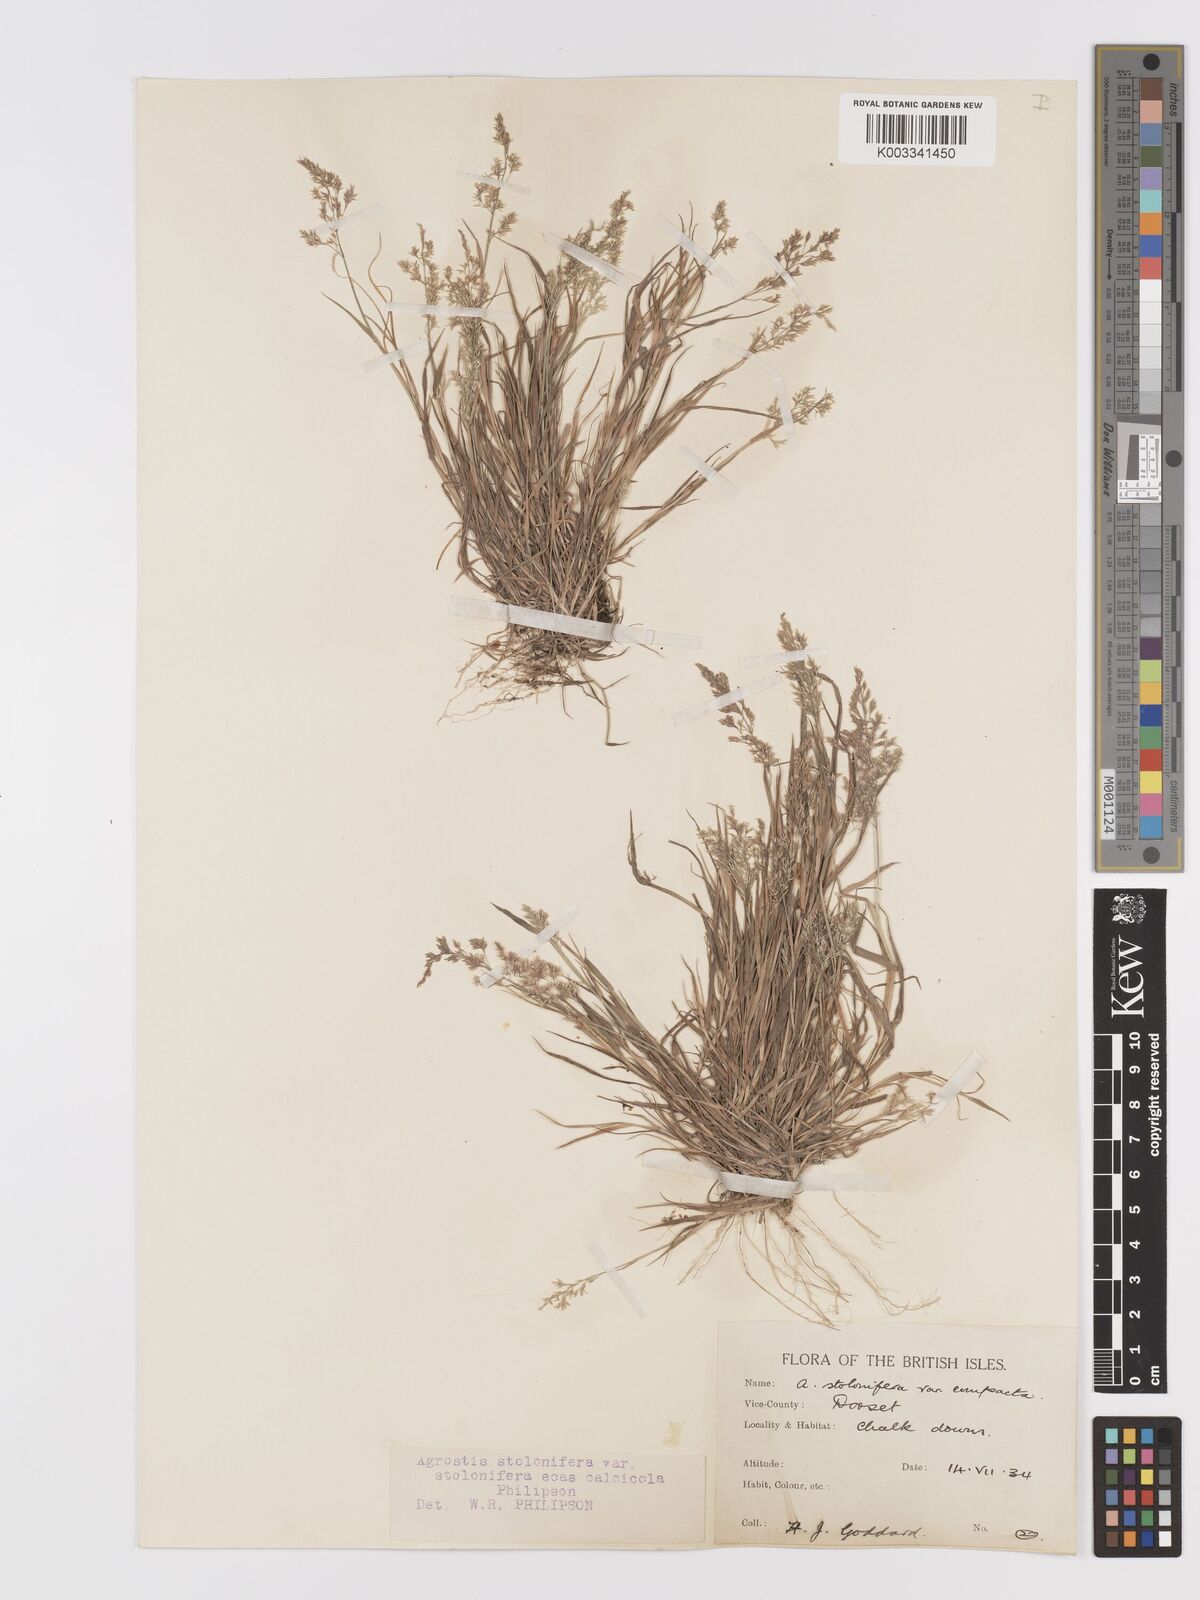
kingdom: Plantae
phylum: Tracheophyta
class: Liliopsida
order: Poales
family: Poaceae
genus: Agrostis
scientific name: Agrostis stolonifera
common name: Creeping bentgrass
